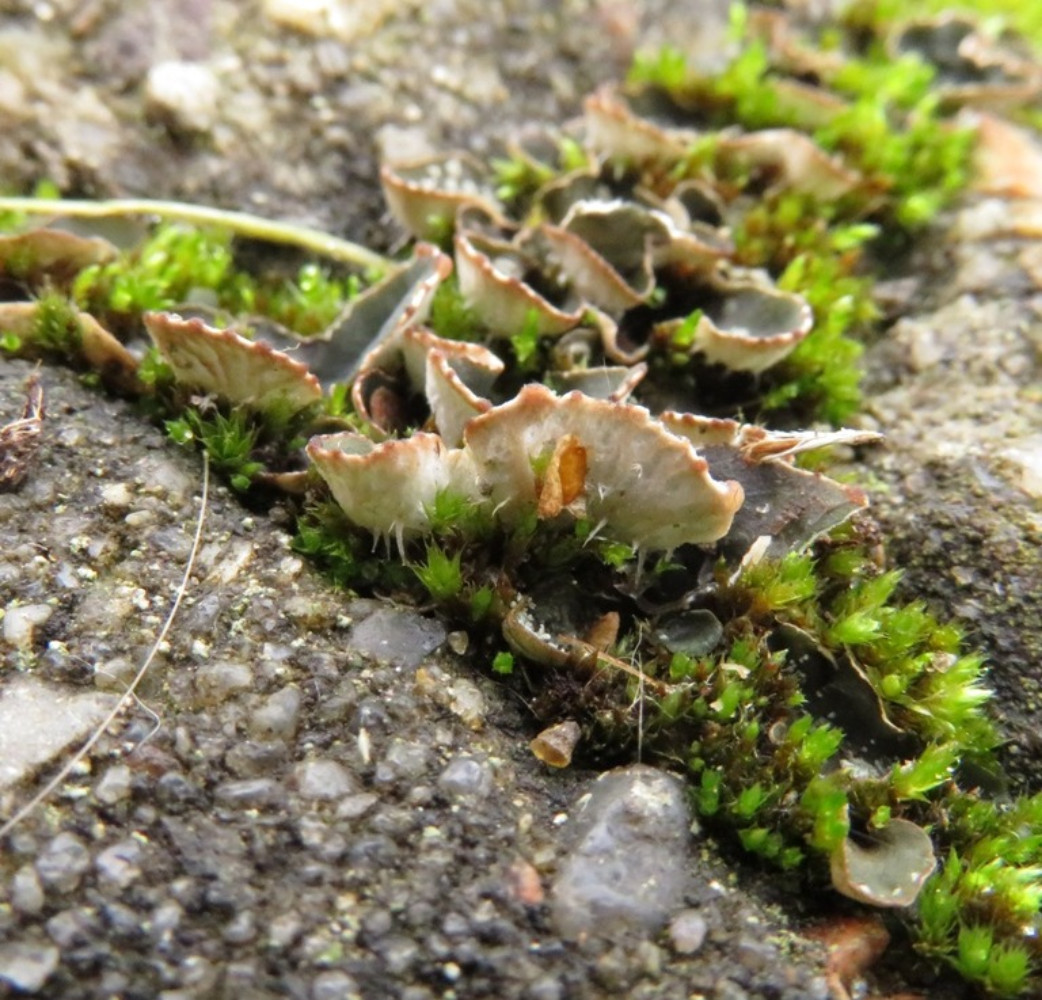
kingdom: Fungi
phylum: Ascomycota
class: Lecanoromycetes
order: Peltigerales
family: Peltigeraceae
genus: Peltigera
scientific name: Peltigera didactyla
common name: liden skjoldlav
